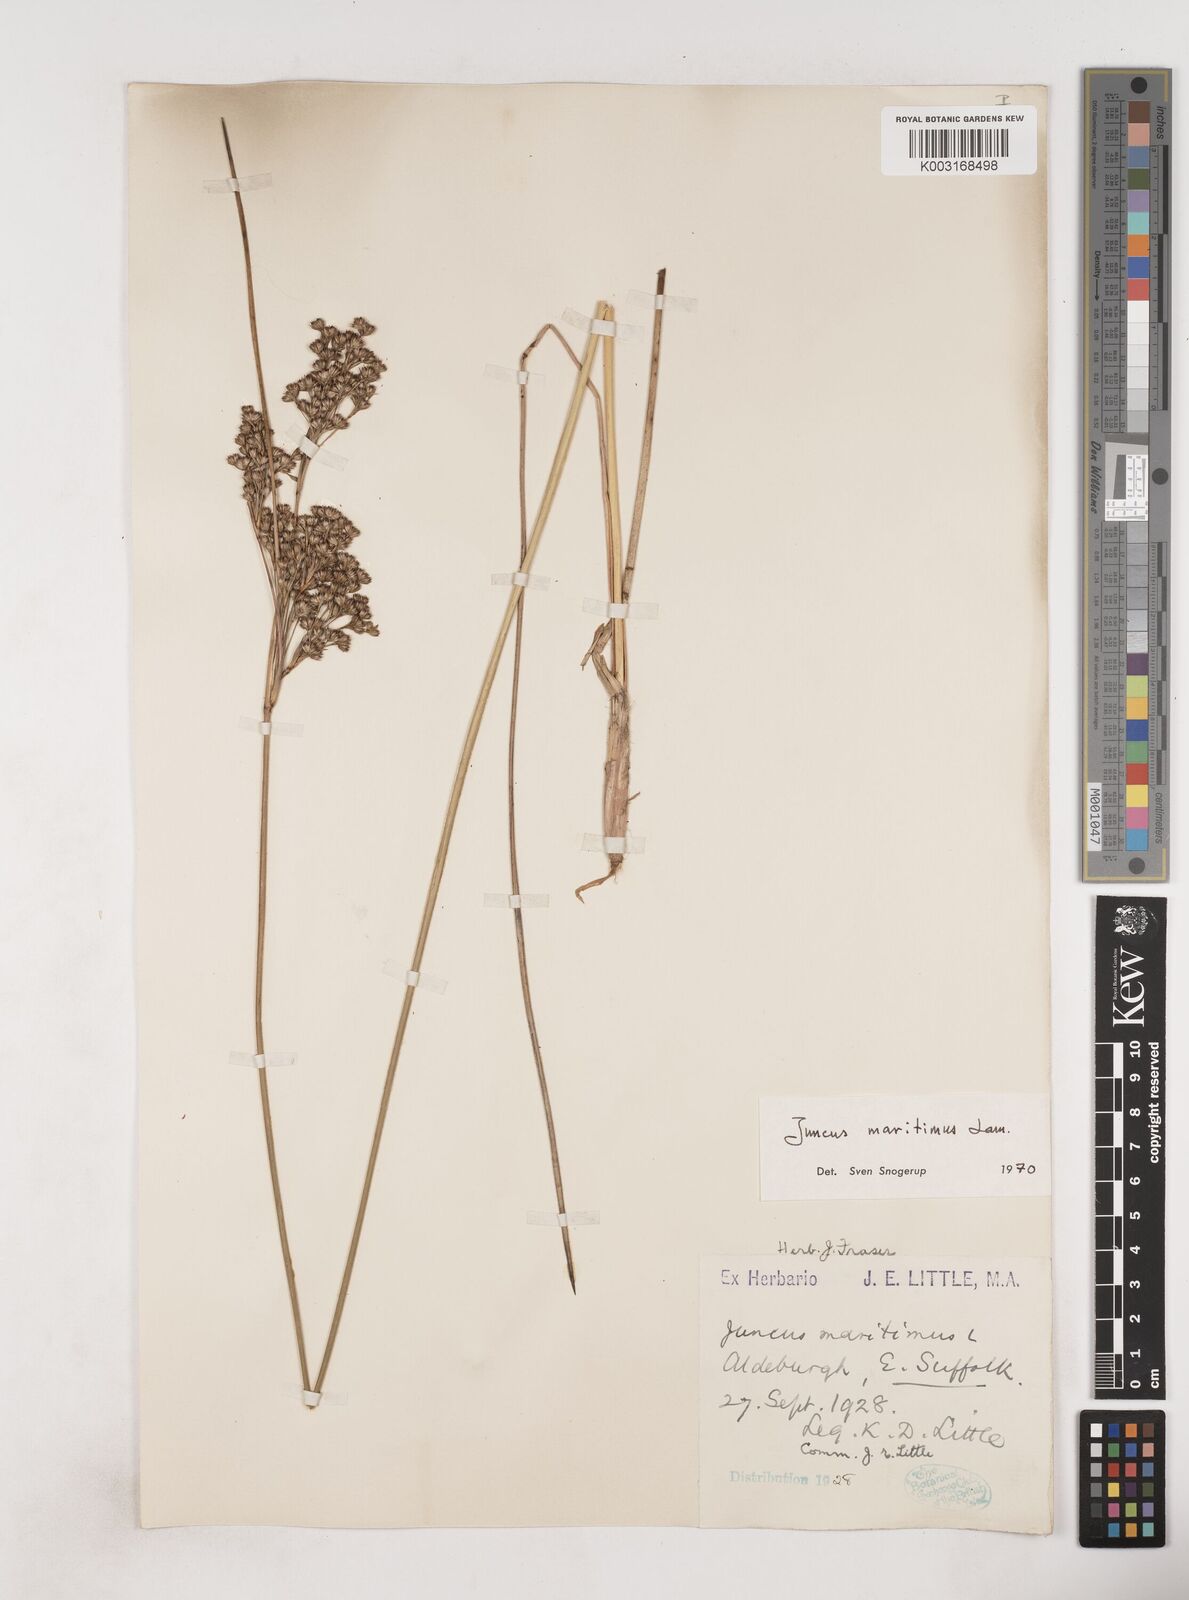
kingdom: Plantae
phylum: Tracheophyta
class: Liliopsida
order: Poales
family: Juncaceae
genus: Juncus
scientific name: Juncus maritimus
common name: Sea rush
